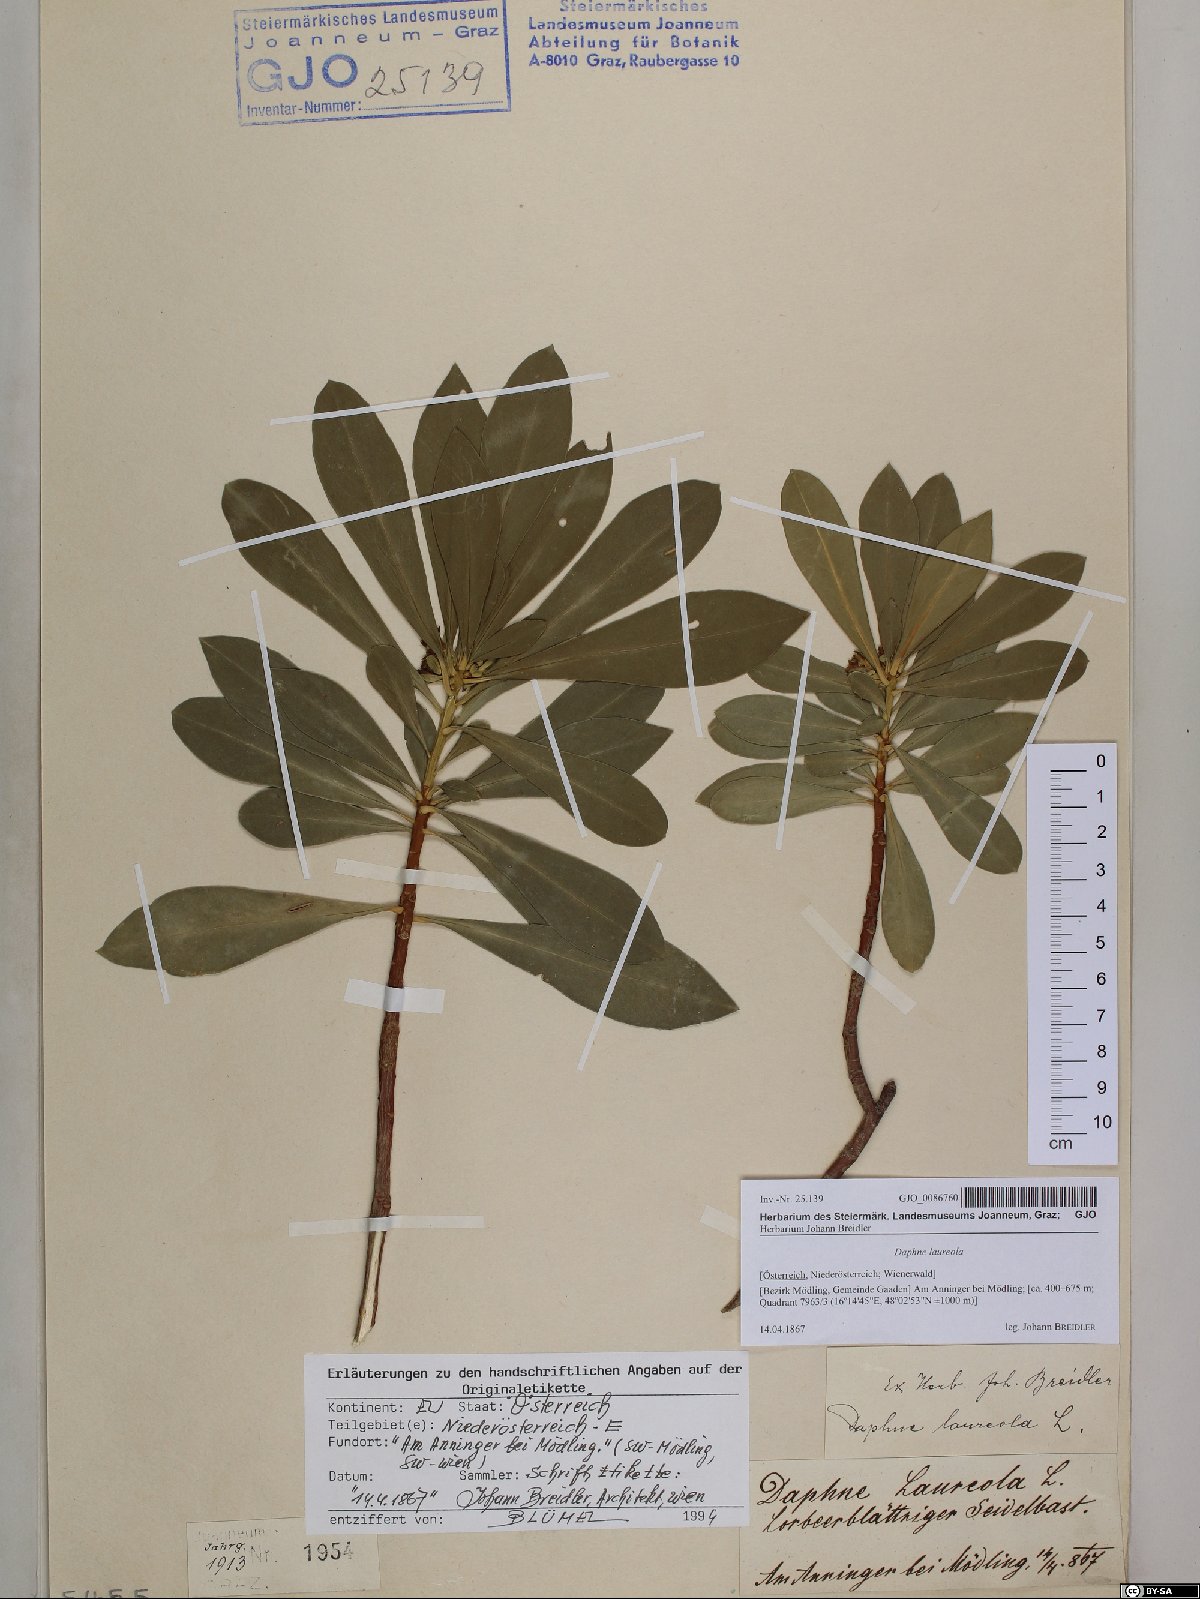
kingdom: Plantae
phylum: Tracheophyta
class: Magnoliopsida
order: Malvales
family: Thymelaeaceae
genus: Daphne
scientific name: Daphne laureola
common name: Spurge-laurel
